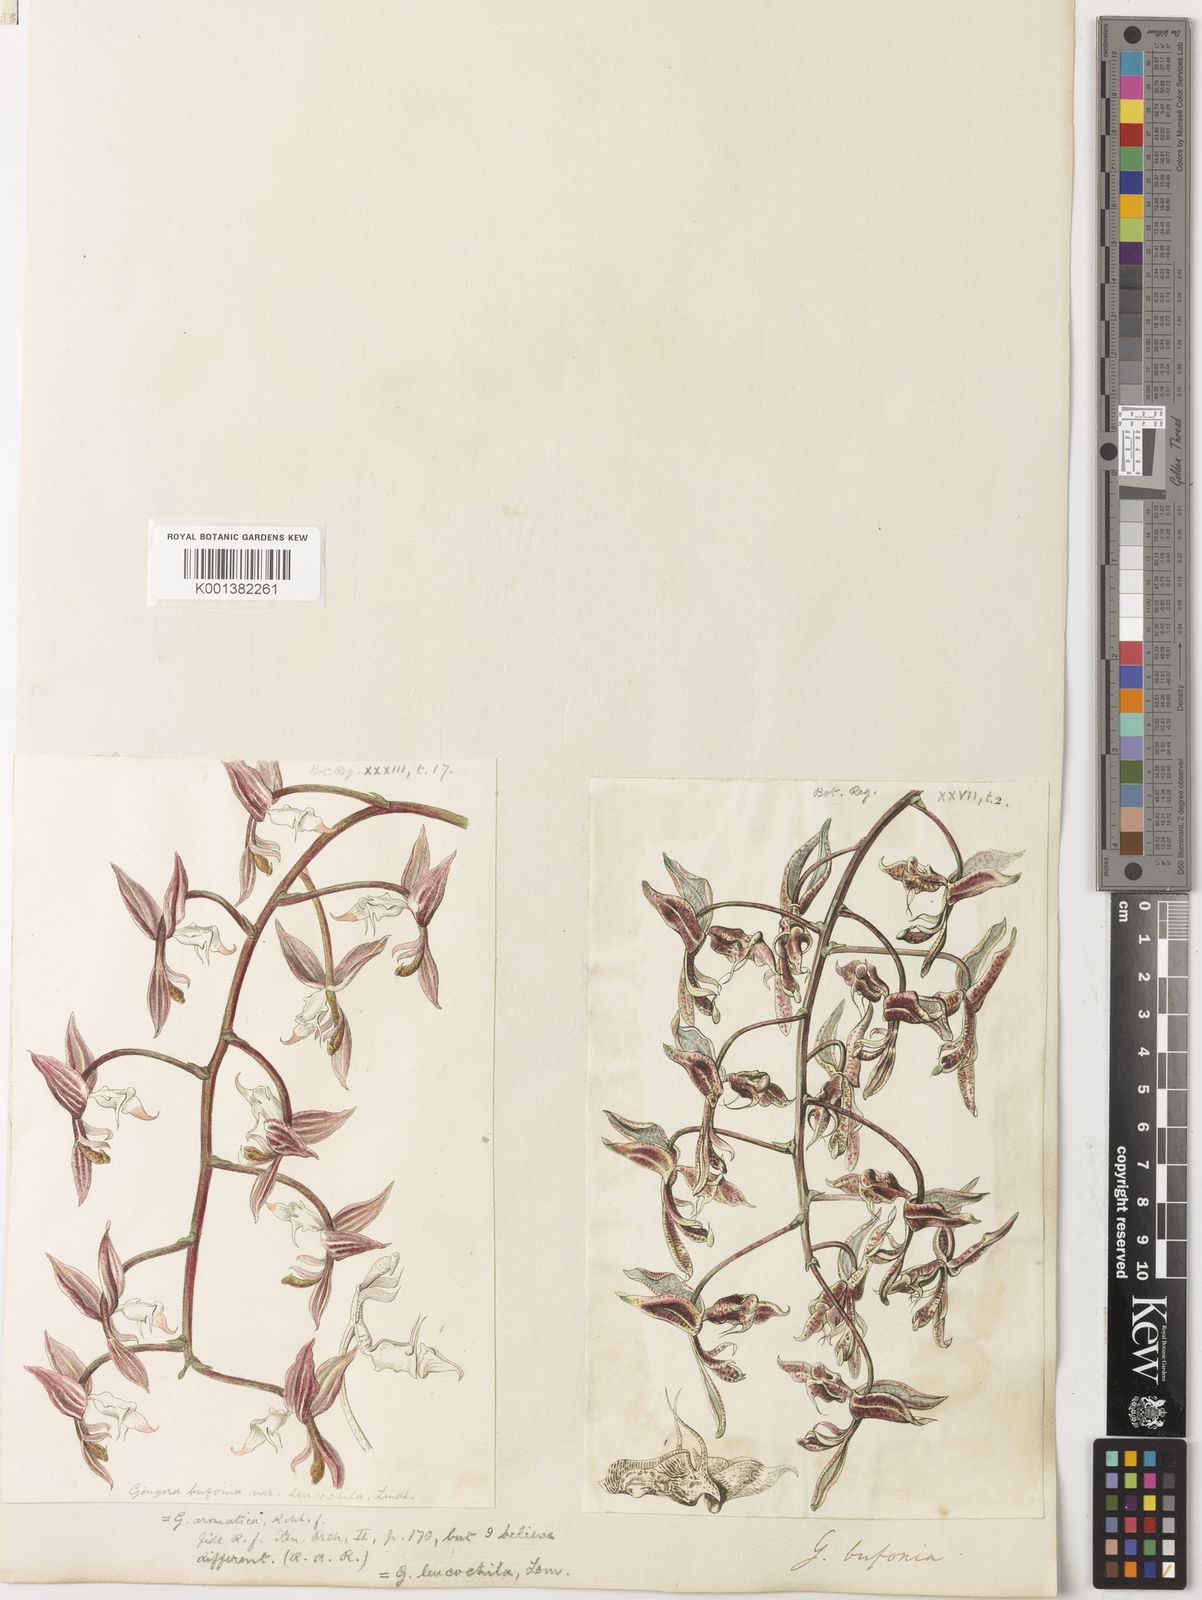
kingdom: Plantae
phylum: Tracheophyta
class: Liliopsida
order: Asparagales
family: Orchidaceae
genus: Gongora
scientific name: Gongora bufonia
